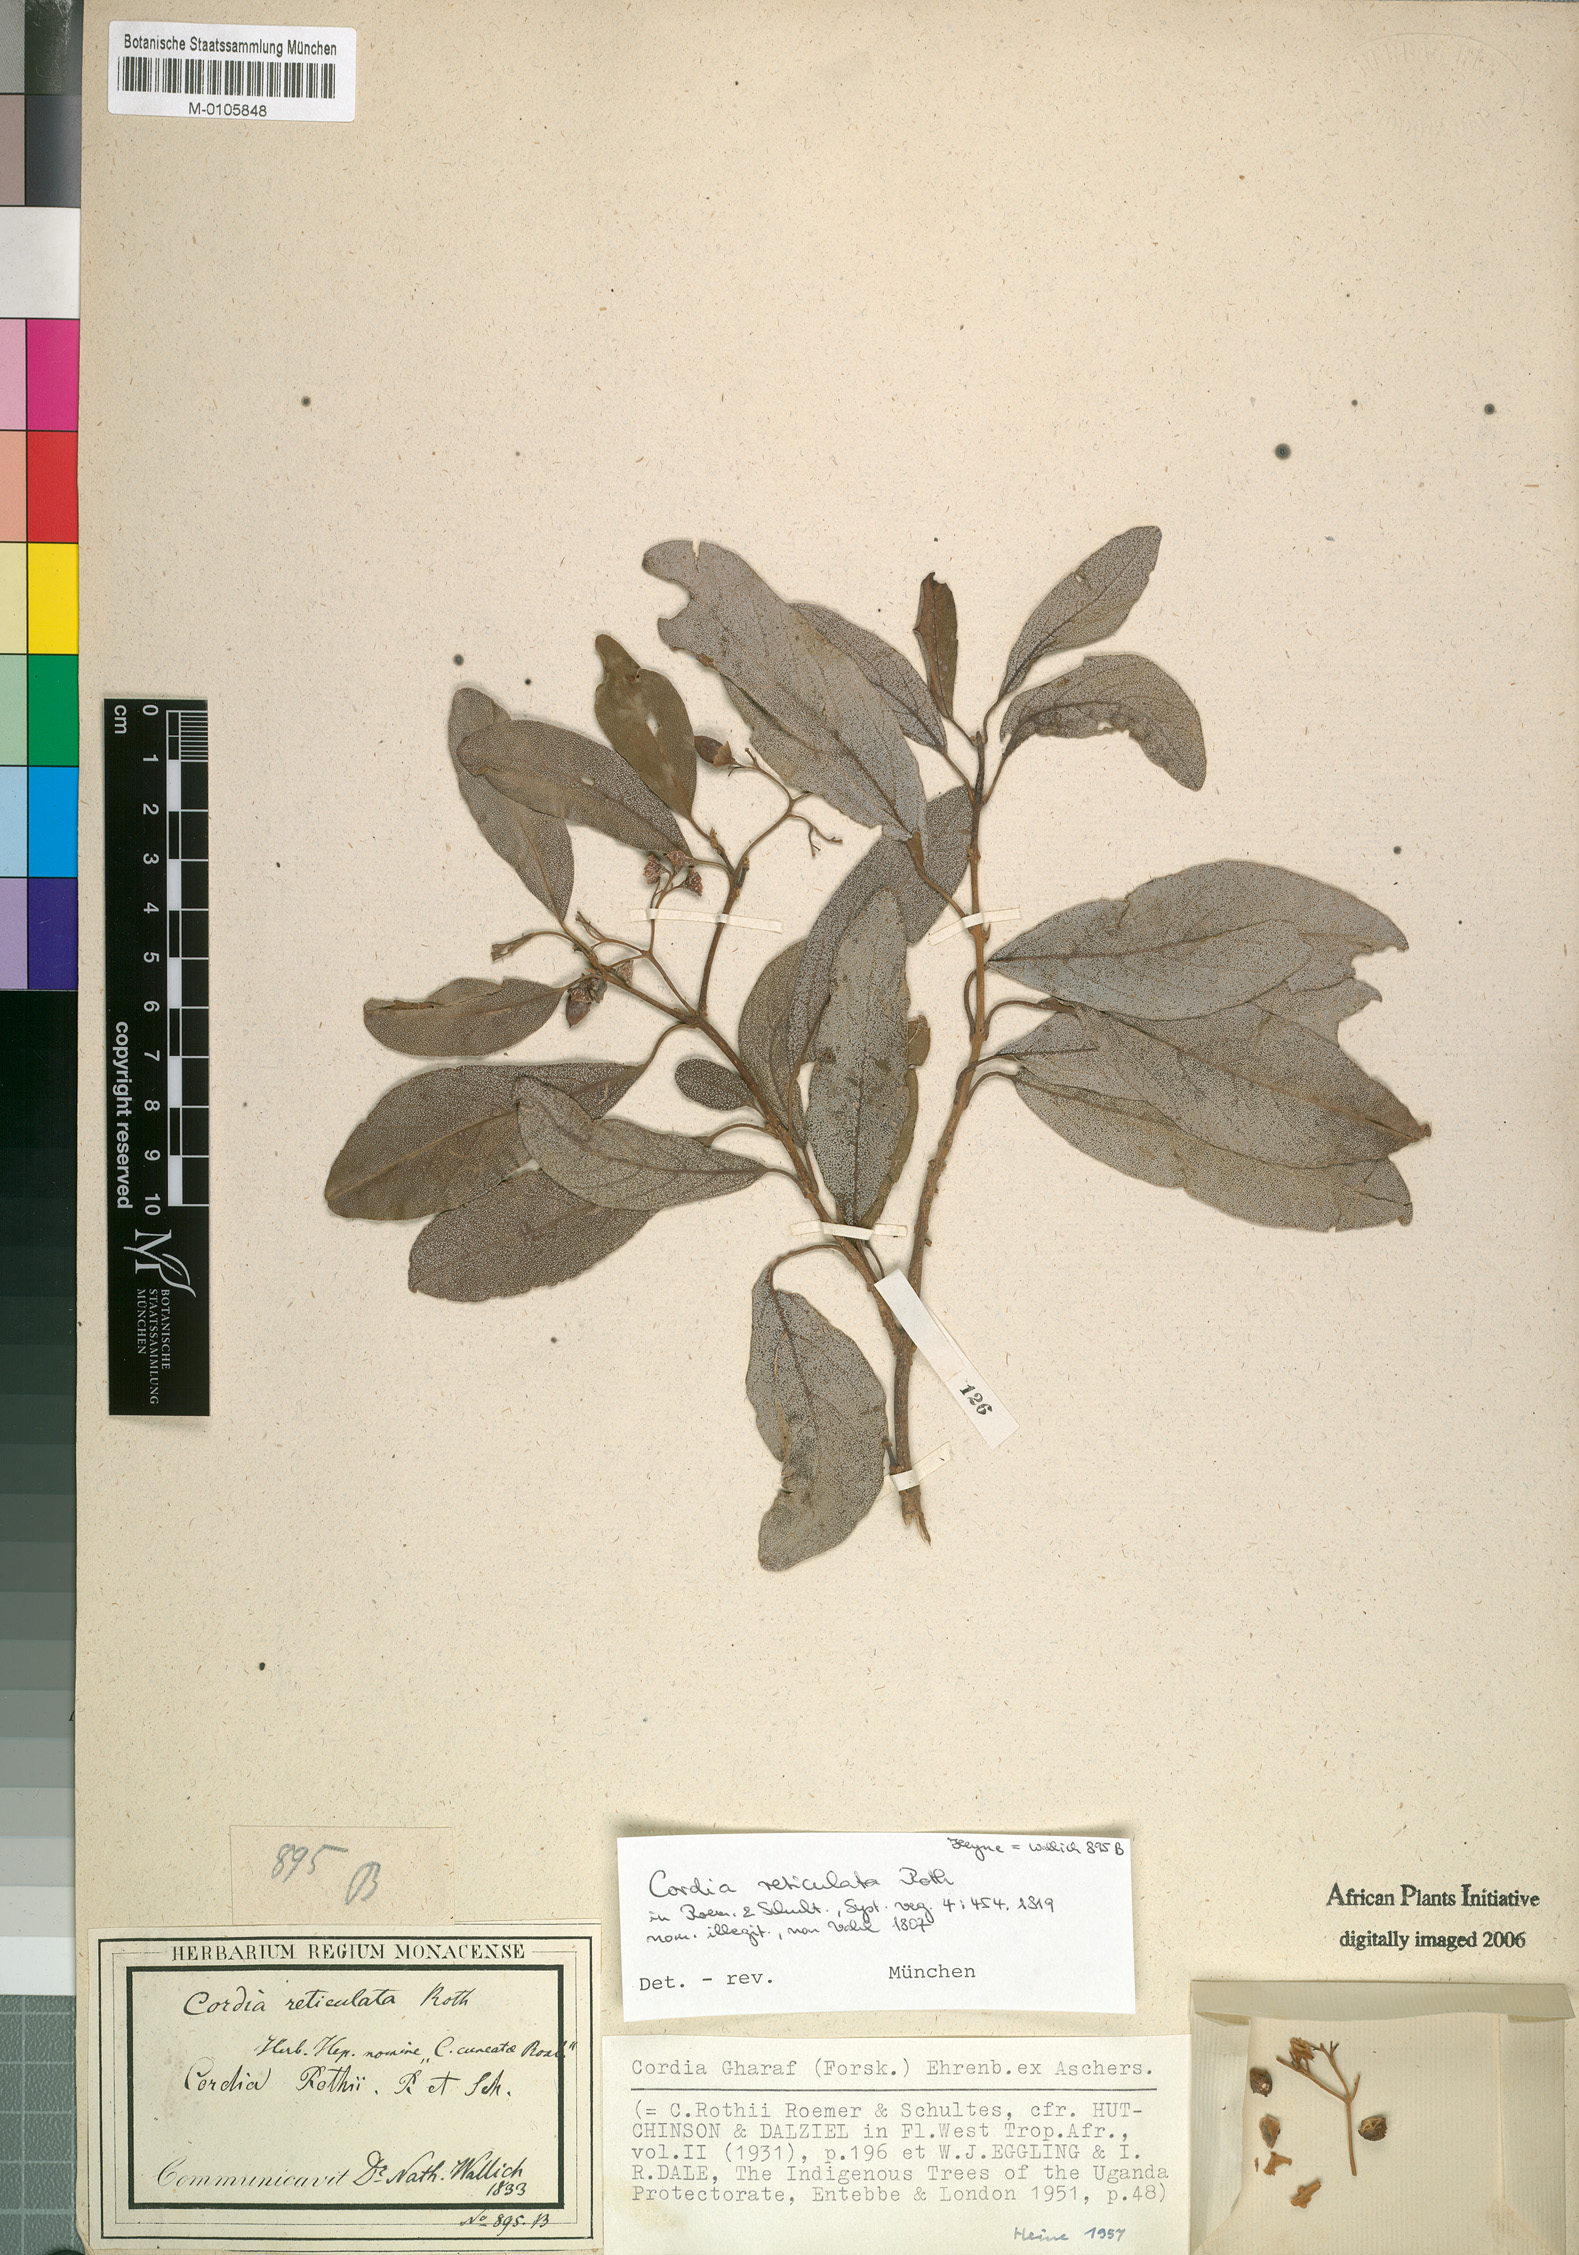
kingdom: Plantae
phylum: Tracheophyta
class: Magnoliopsida
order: Boraginales
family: Cordiaceae
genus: Cordia
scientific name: Cordia sinensis
